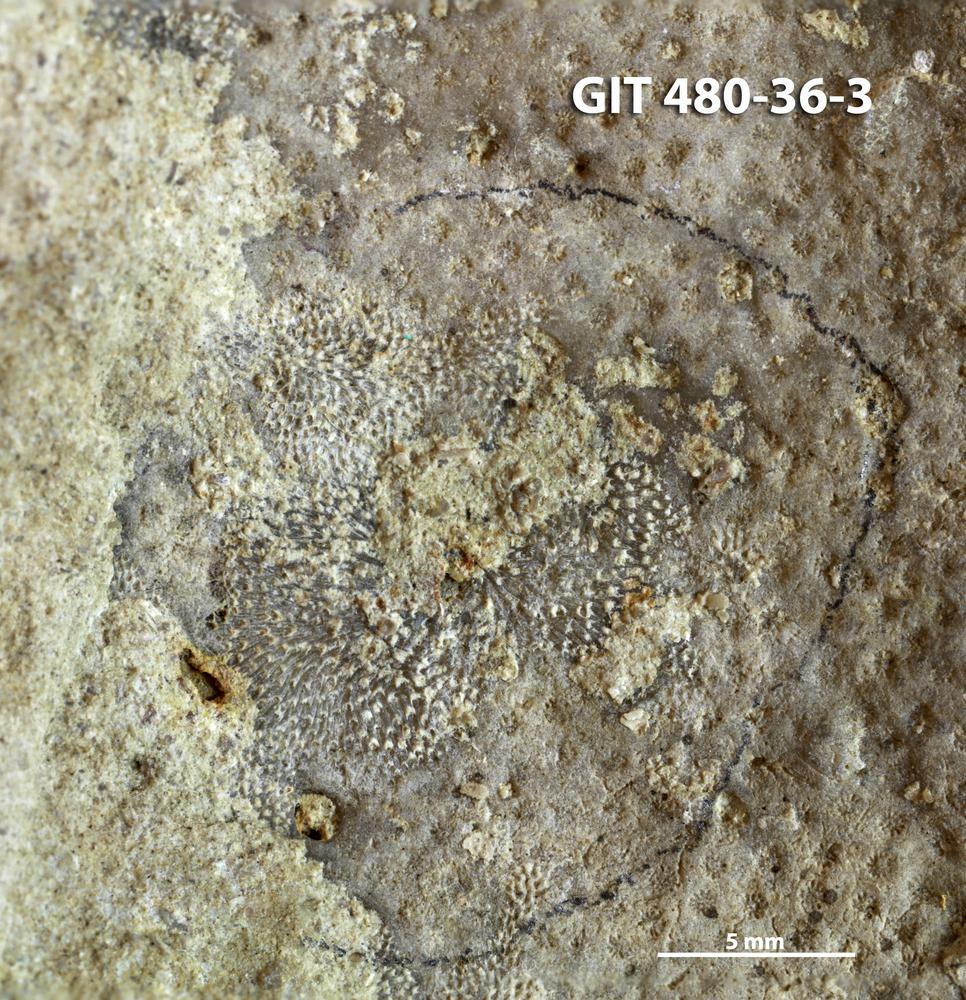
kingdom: Animalia
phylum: Bryozoa
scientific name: Bryozoa
